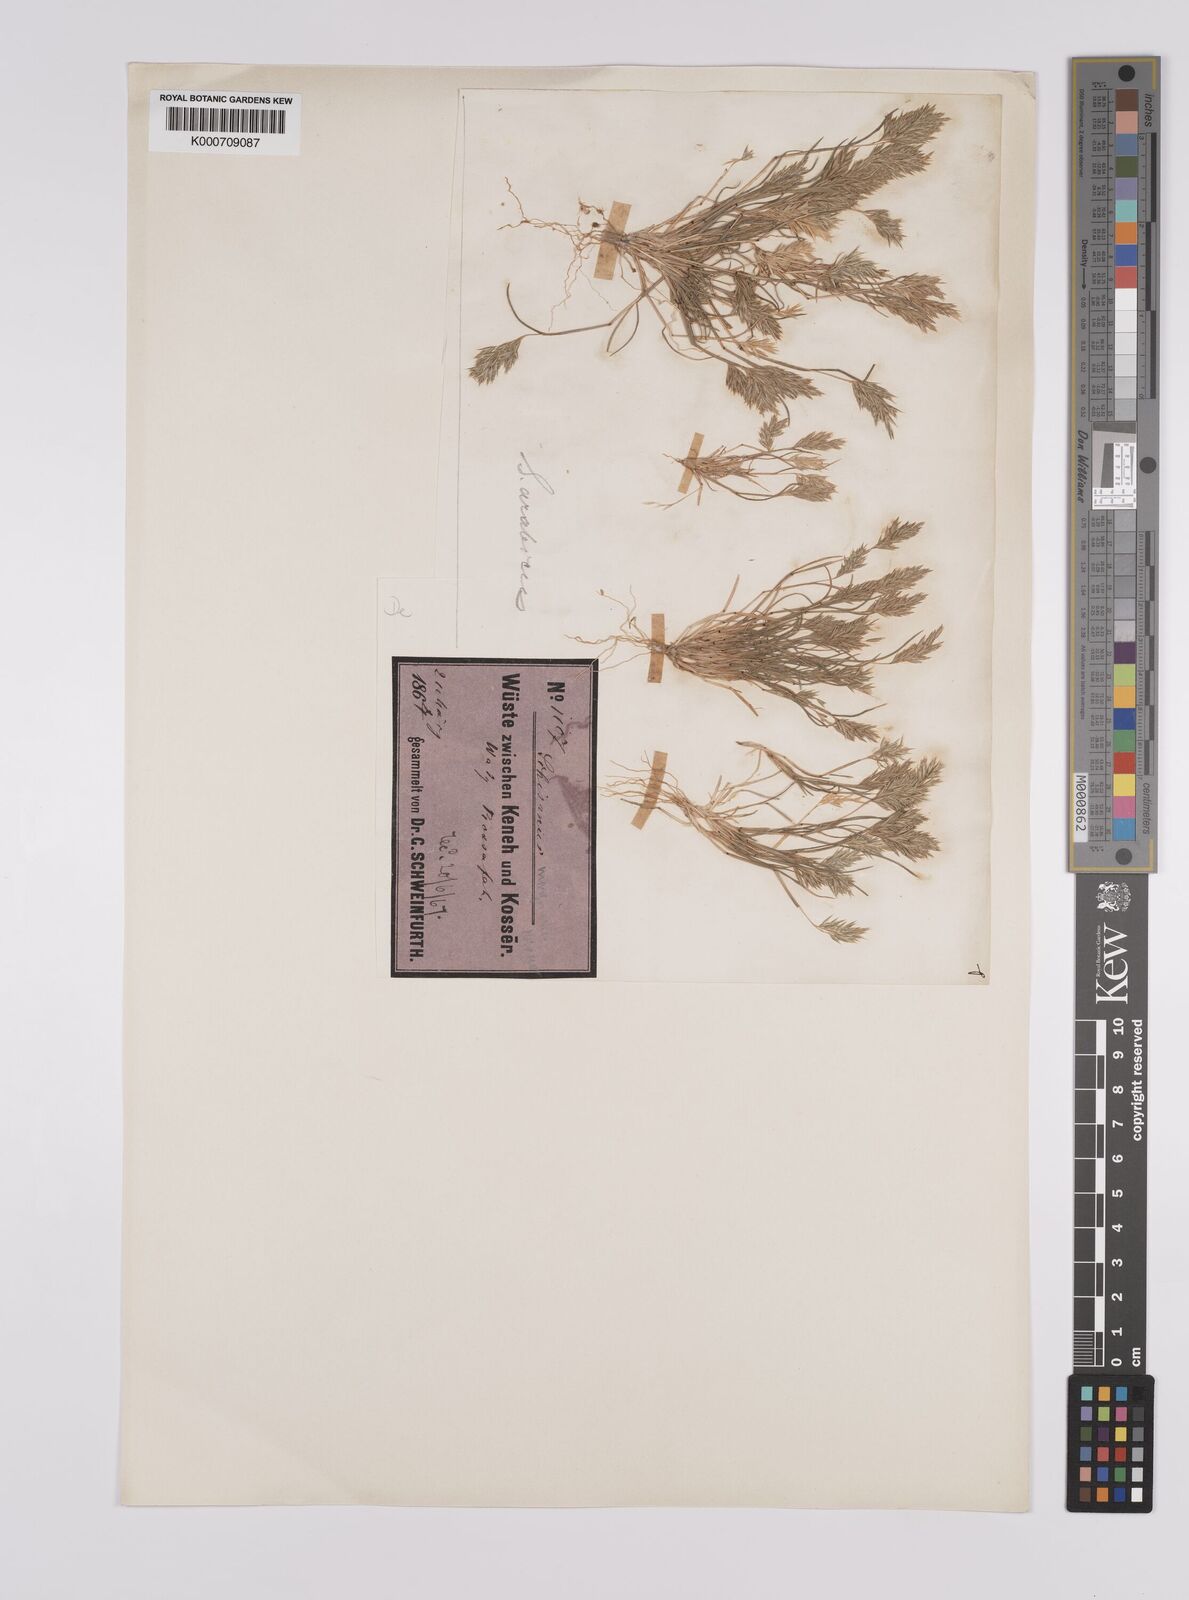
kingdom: Plantae
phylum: Tracheophyta
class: Liliopsida
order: Poales
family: Poaceae
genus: Schismus
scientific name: Schismus arabicus
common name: Arabian schismus
